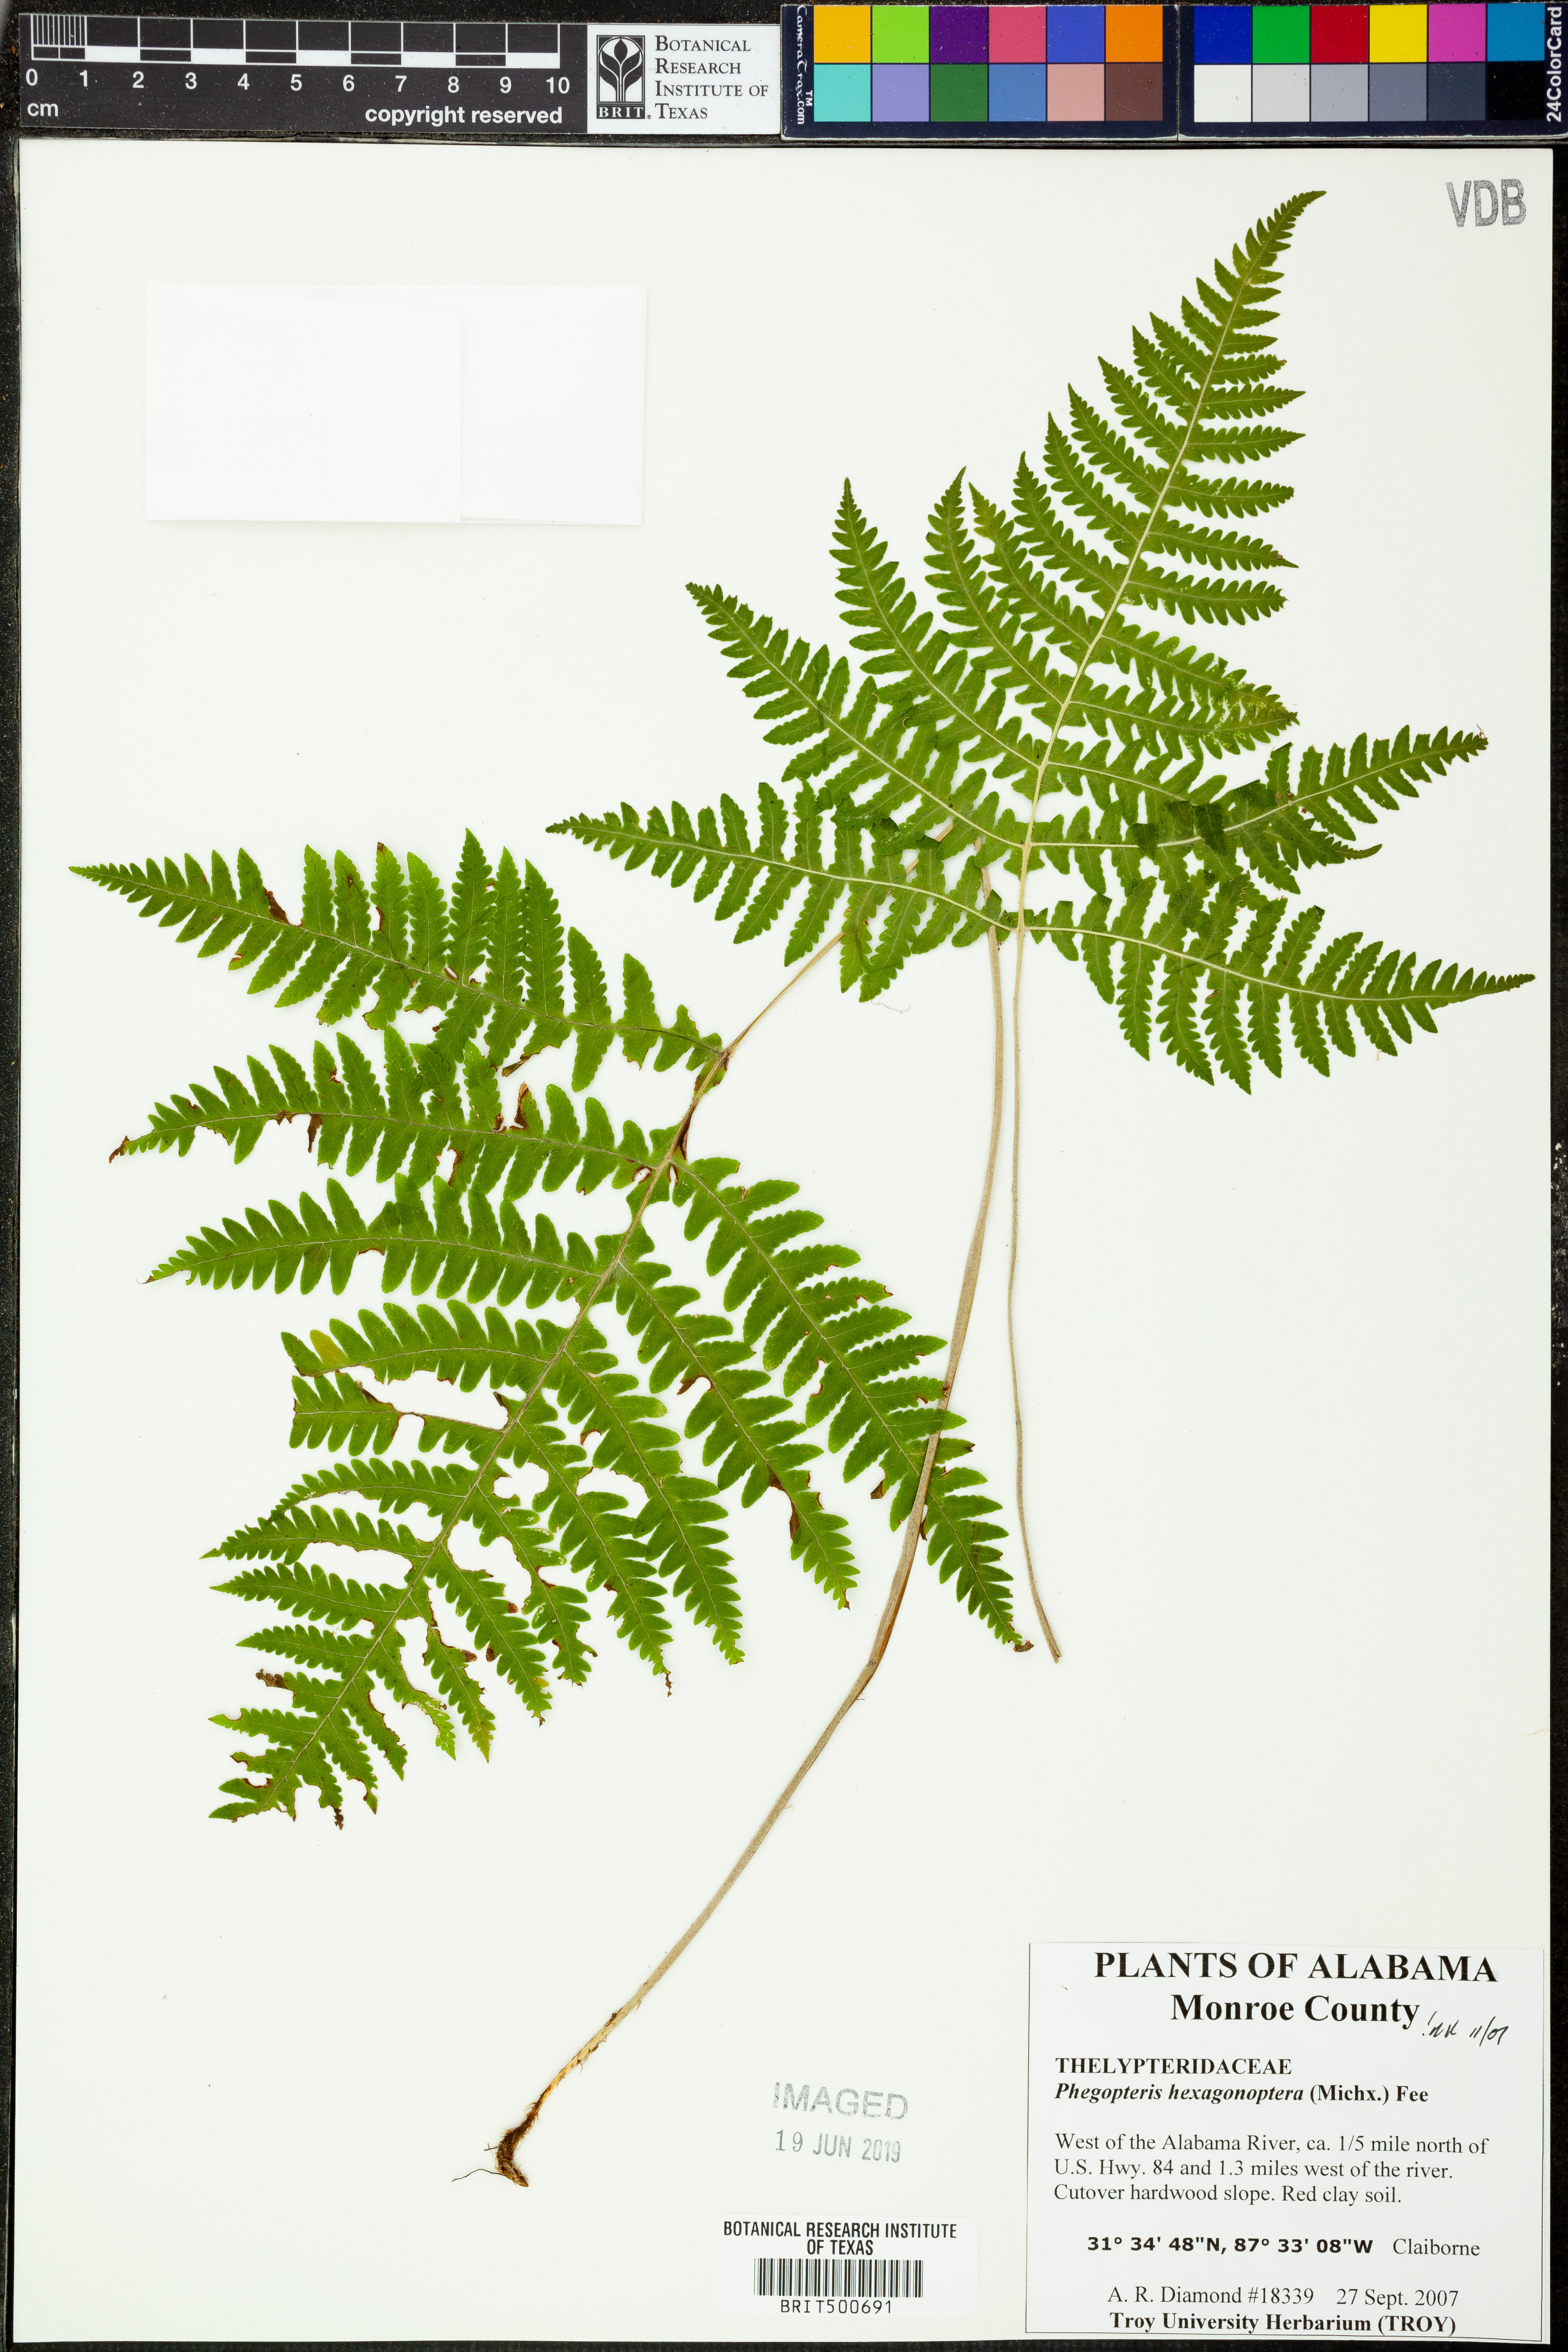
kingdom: Plantae
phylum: Tracheophyta
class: Polypodiopsida
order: Polypodiales
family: Thelypteridaceae
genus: Phegopteris
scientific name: Phegopteris hexagonoptera
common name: Broad beech fern
